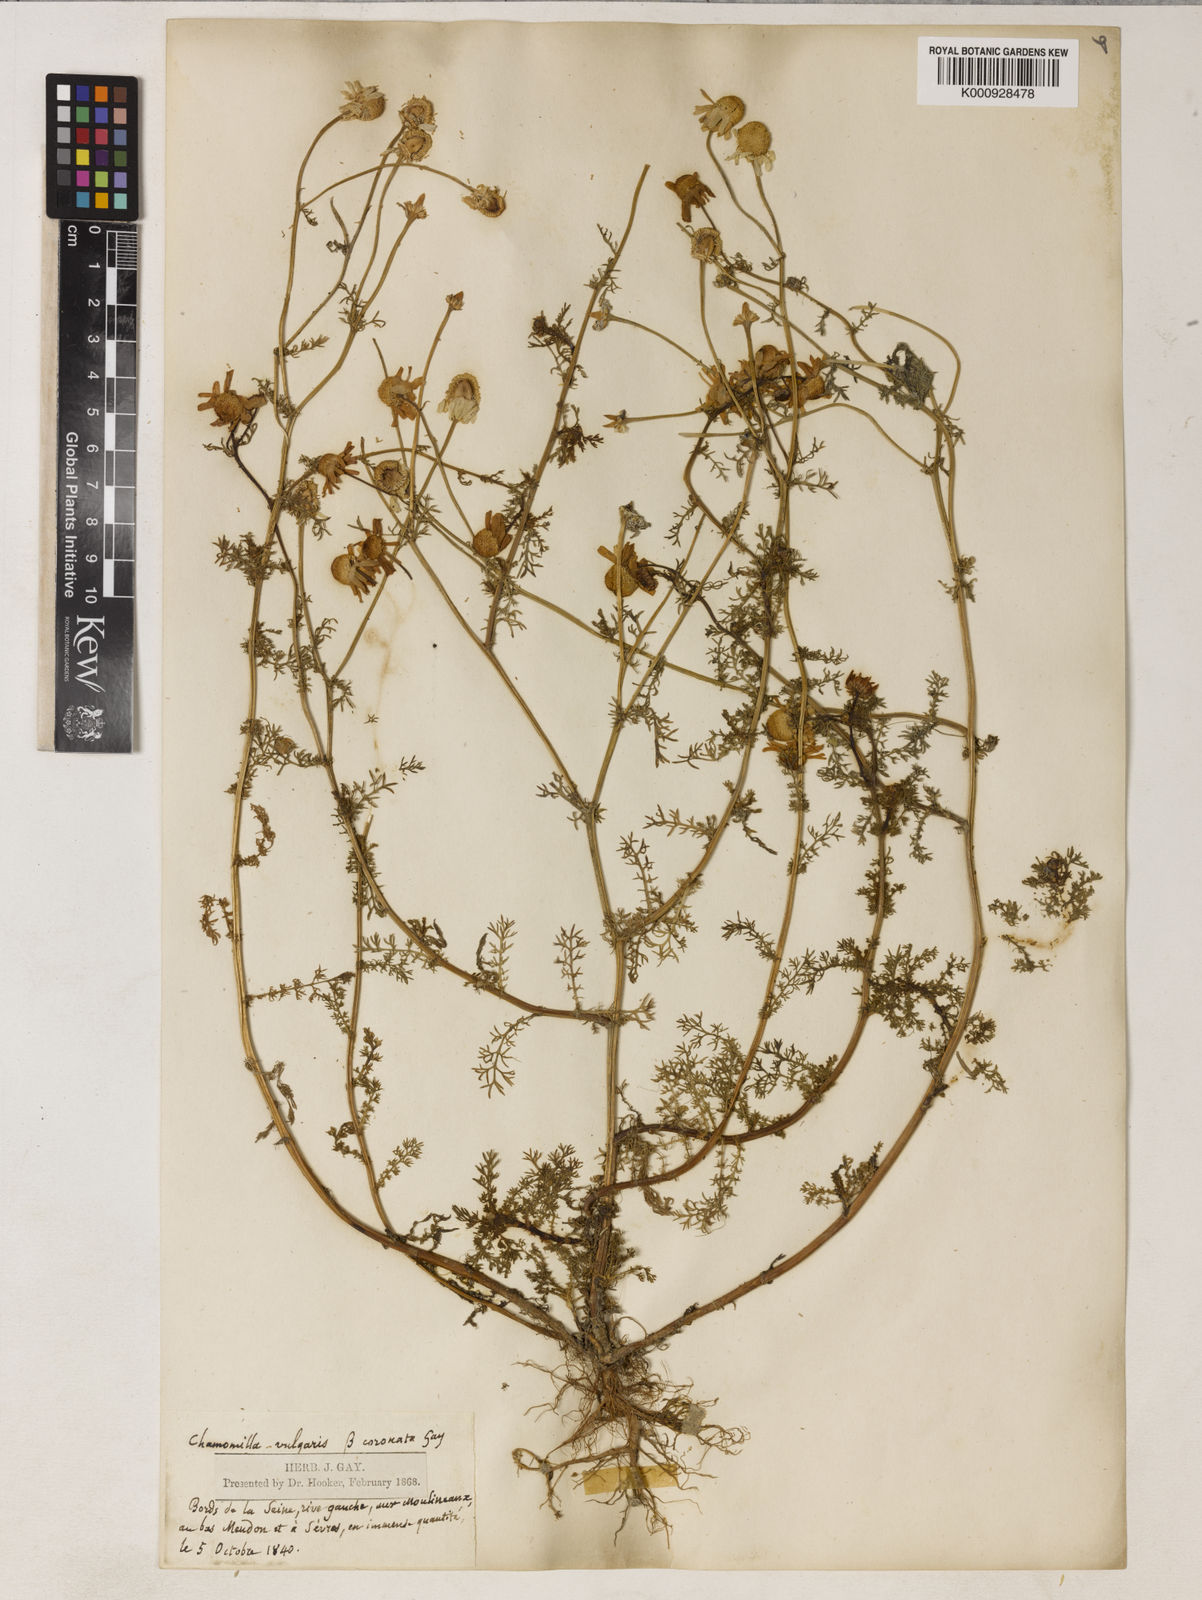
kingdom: Plantae
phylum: Tracheophyta
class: Magnoliopsida
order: Asterales
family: Asteraceae
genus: Matricaria
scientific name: Matricaria chamomilla
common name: Scented mayweed
